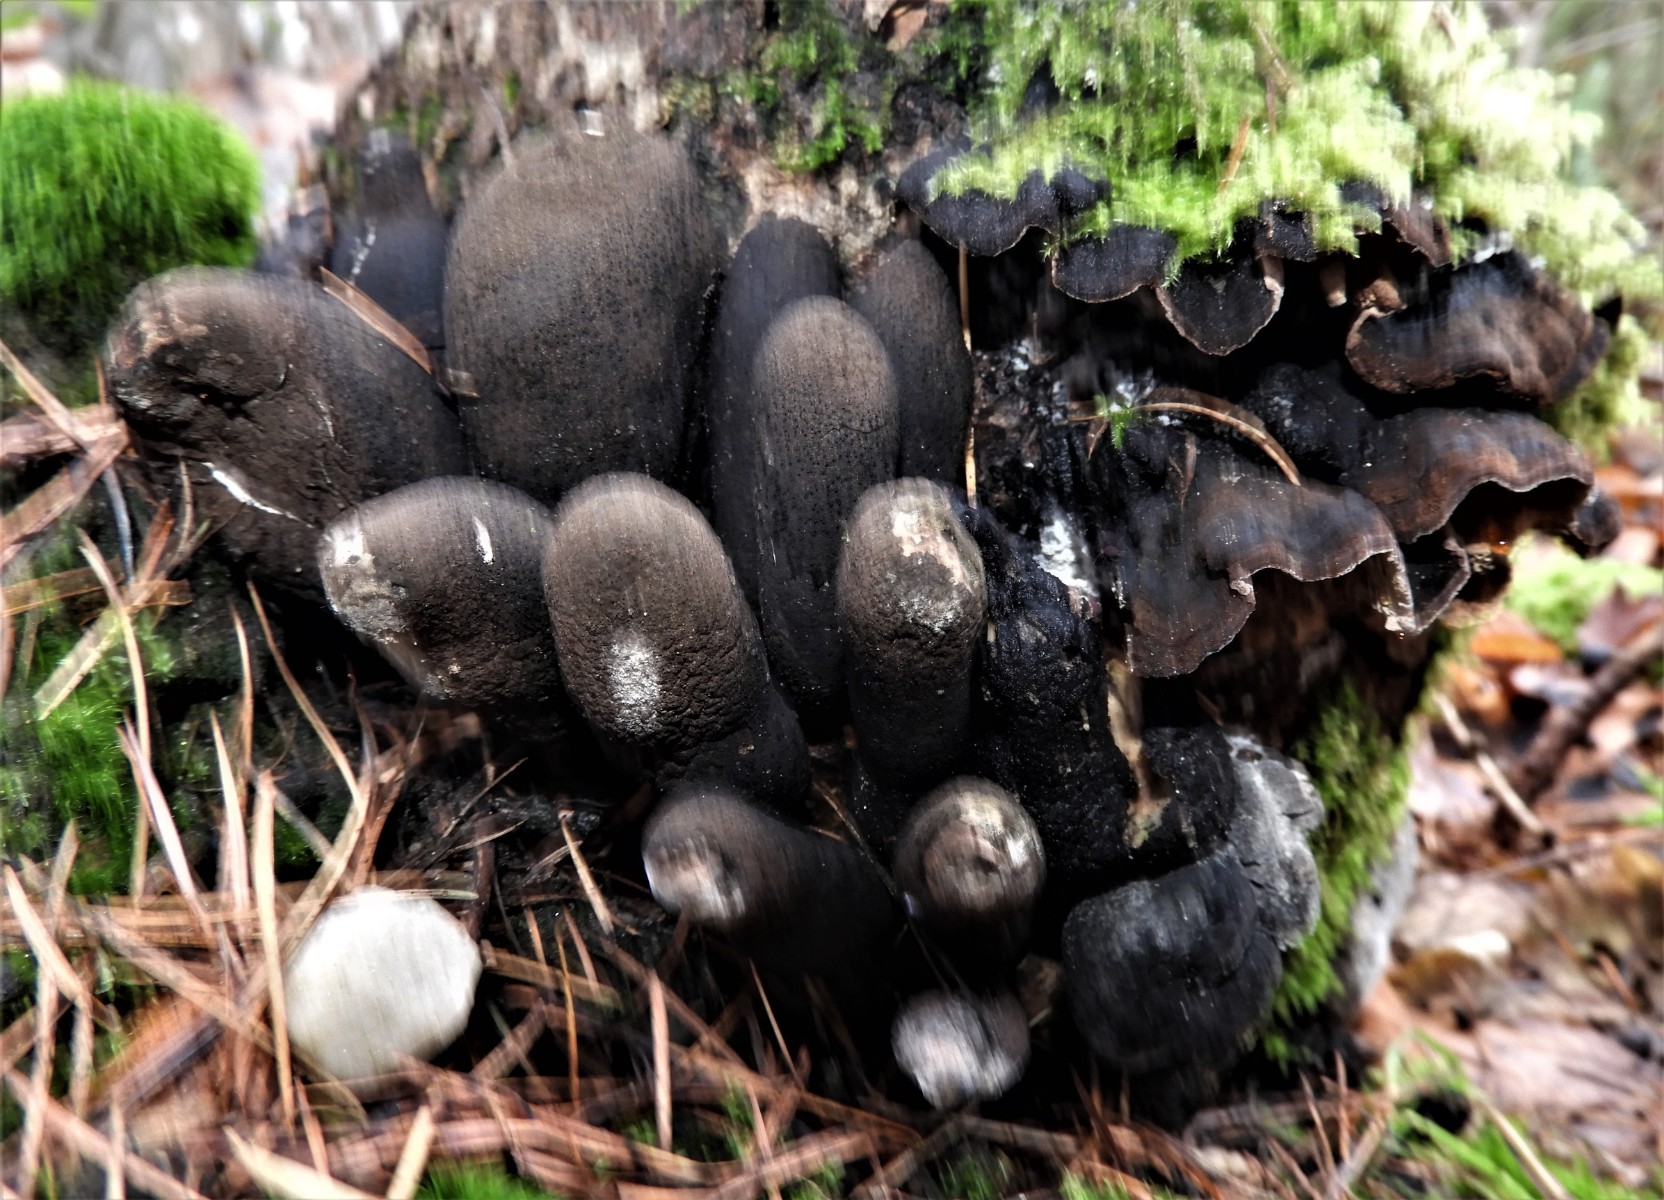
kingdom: Fungi
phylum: Ascomycota
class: Sordariomycetes
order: Xylariales
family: Xylariaceae
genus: Xylaria
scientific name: Xylaria polymorpha
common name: kølle-stødsvamp
